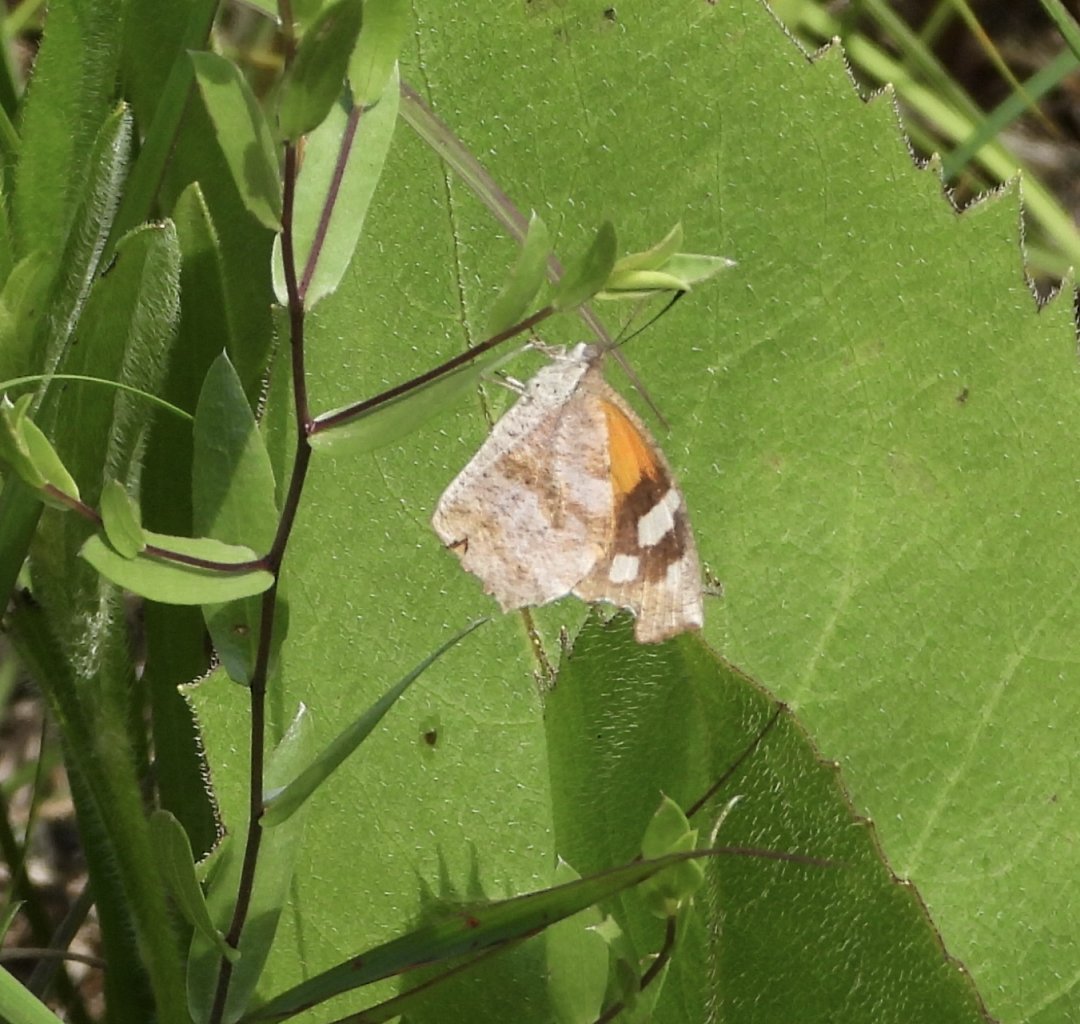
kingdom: Animalia
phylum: Arthropoda
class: Insecta
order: Lepidoptera
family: Nymphalidae
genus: Libytheana
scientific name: Libytheana carinenta
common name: American Snout
